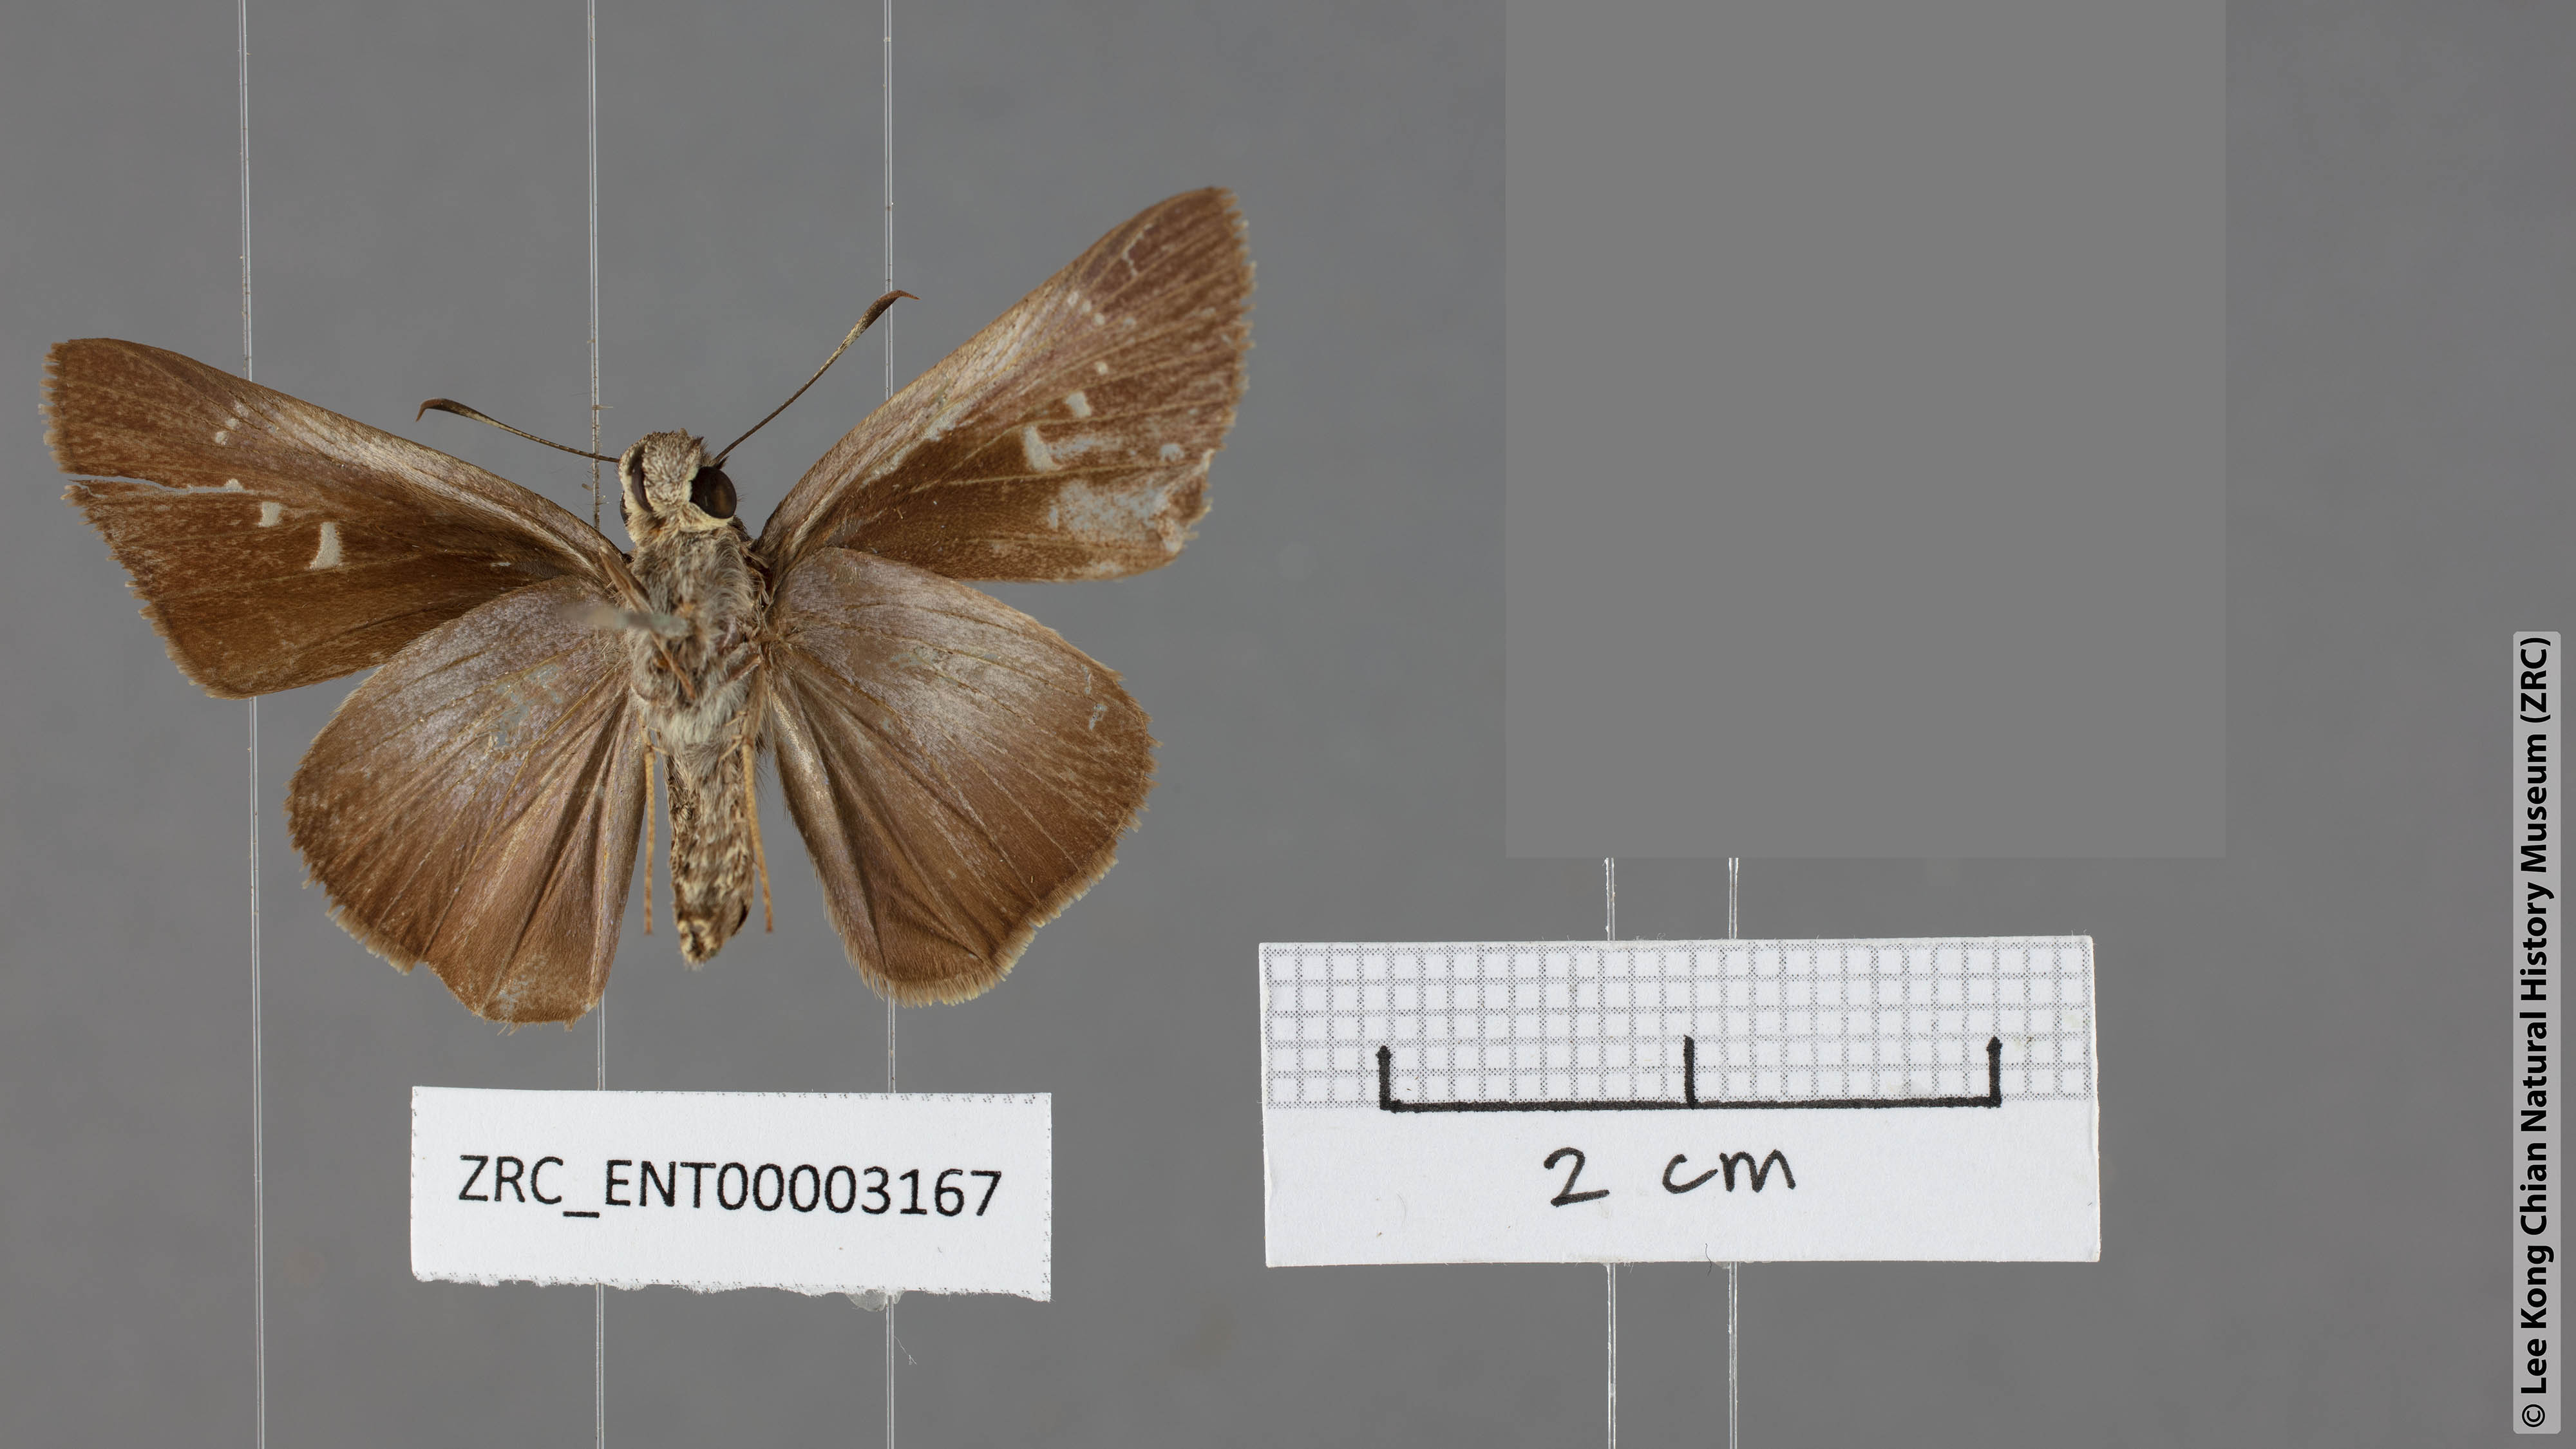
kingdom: Animalia
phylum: Arthropoda
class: Insecta
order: Lepidoptera
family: Hesperiidae
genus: Caltoris
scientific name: Caltoris tulsi
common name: Purple swift
